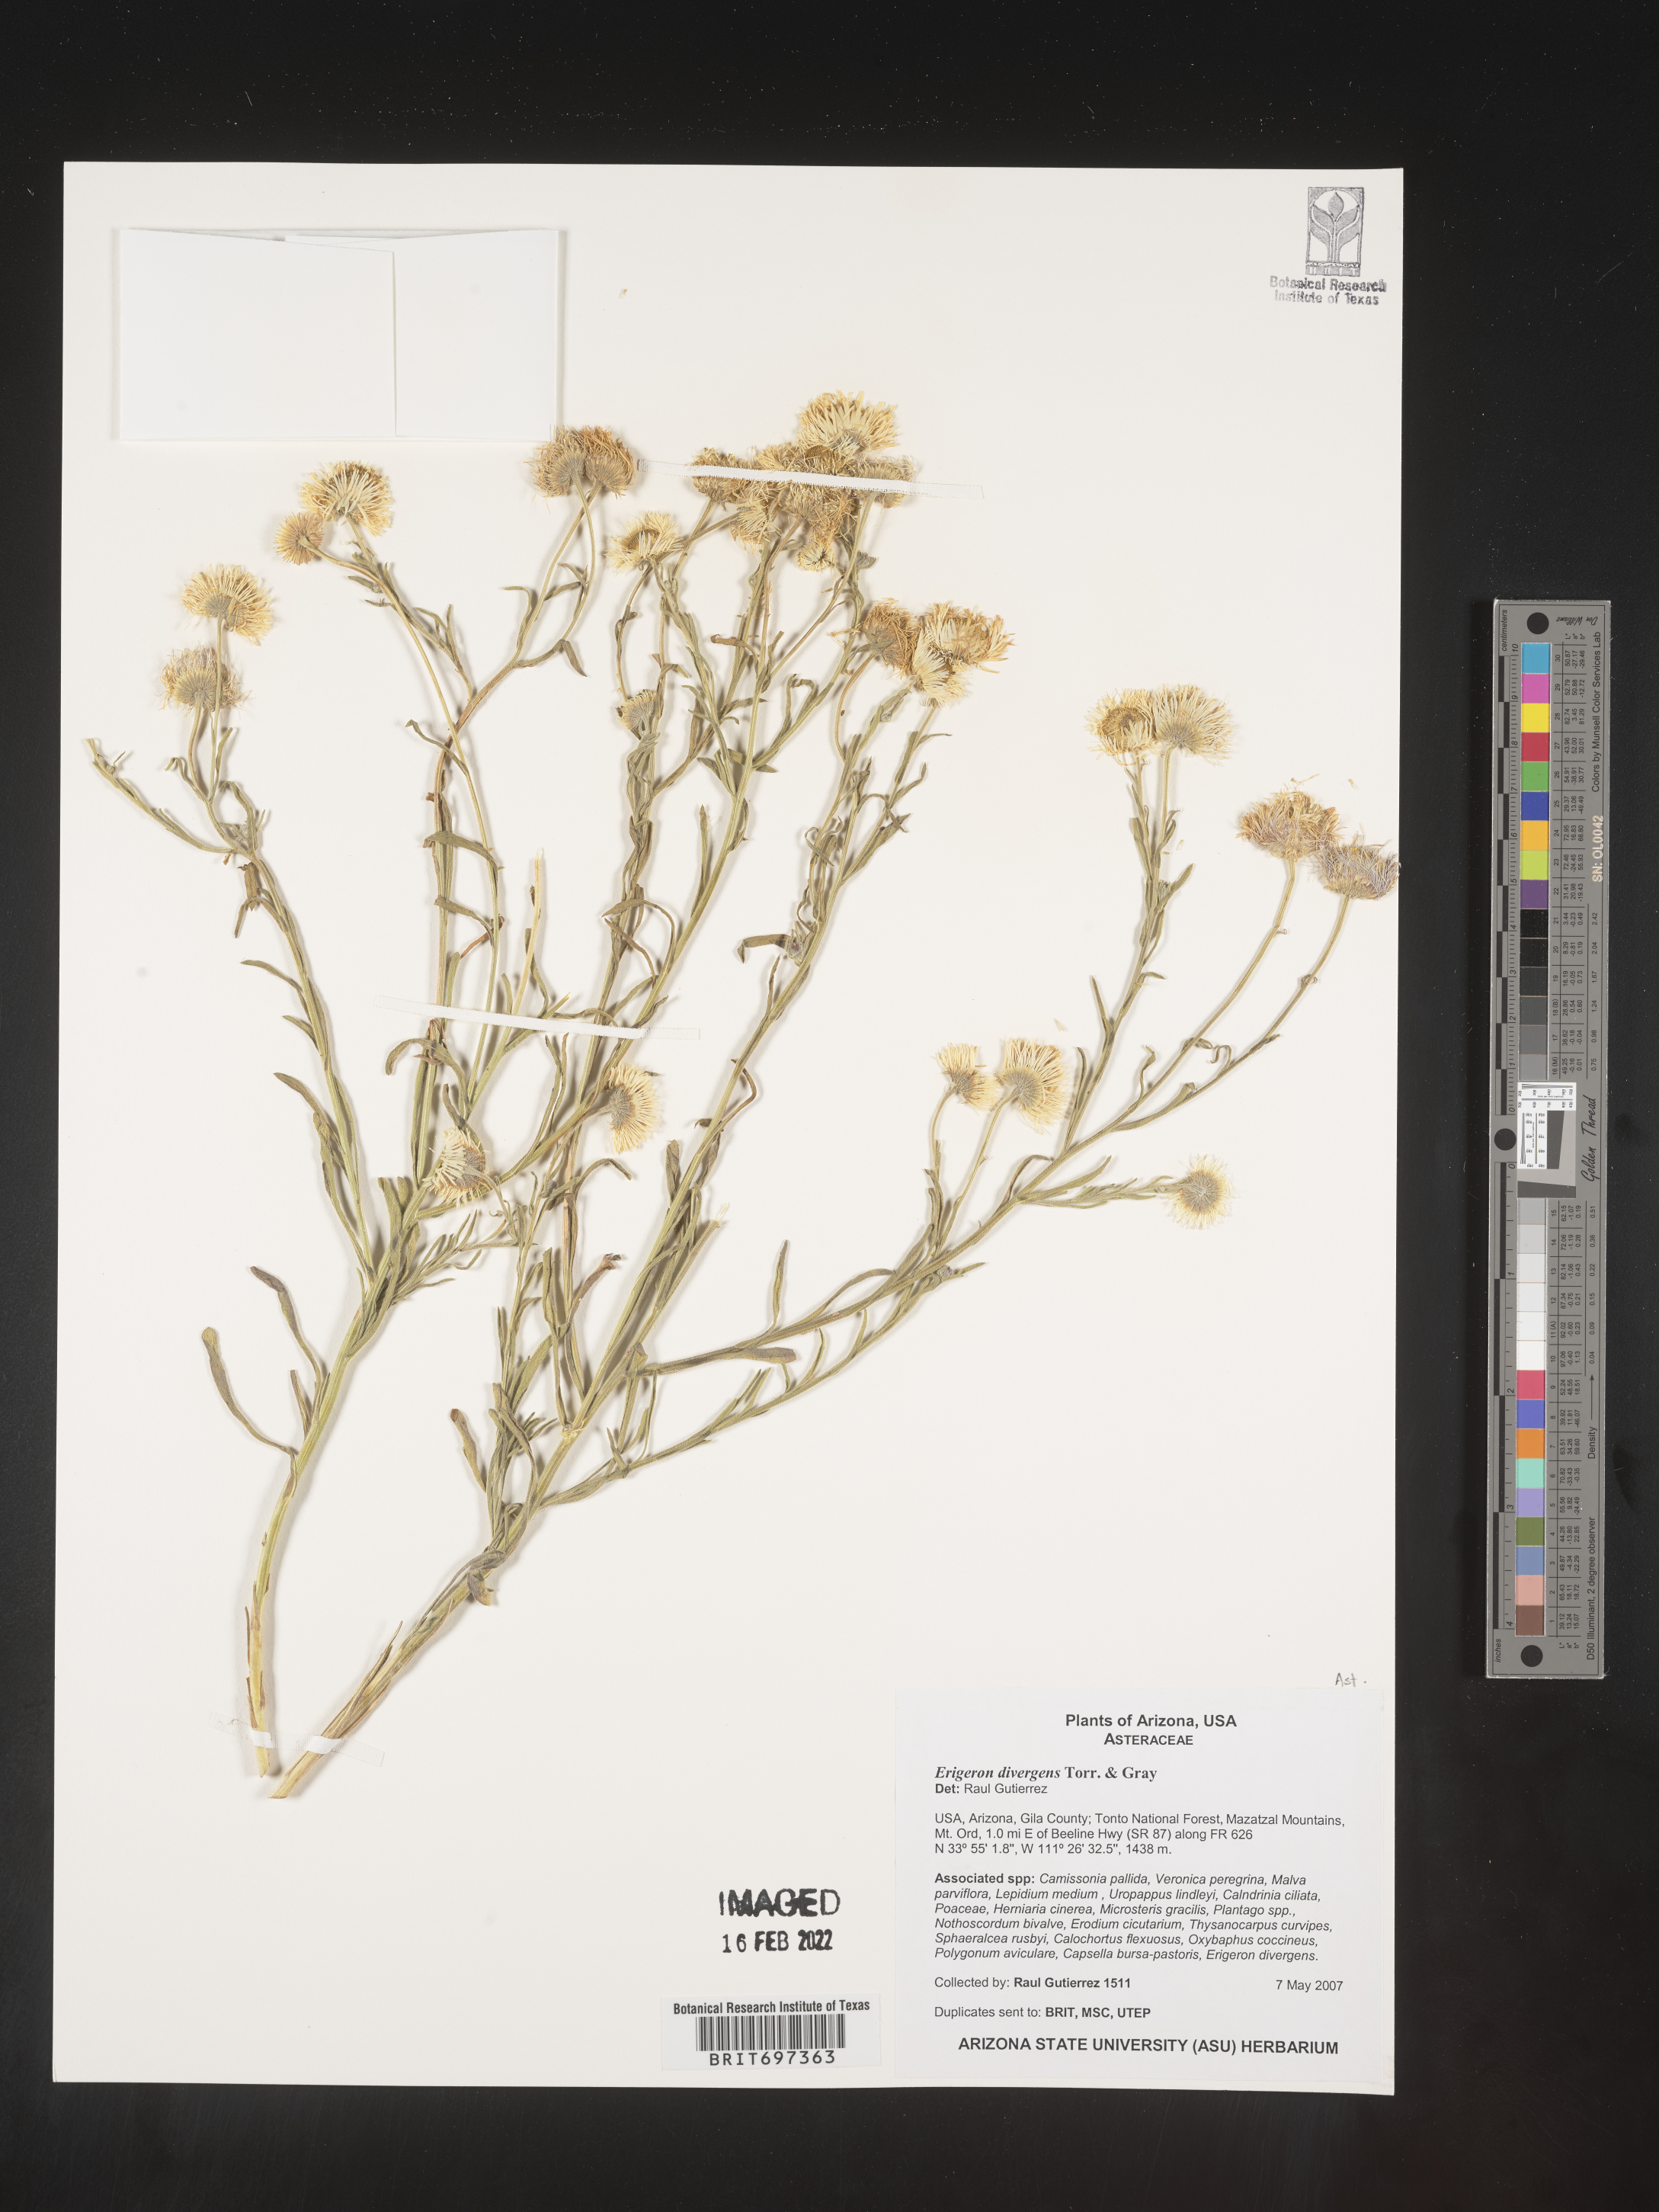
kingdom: Plantae
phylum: Tracheophyta
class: Magnoliopsida
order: Asterales
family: Asteraceae
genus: Erigeron
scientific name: Erigeron divergens
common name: Diffuse fleabane
